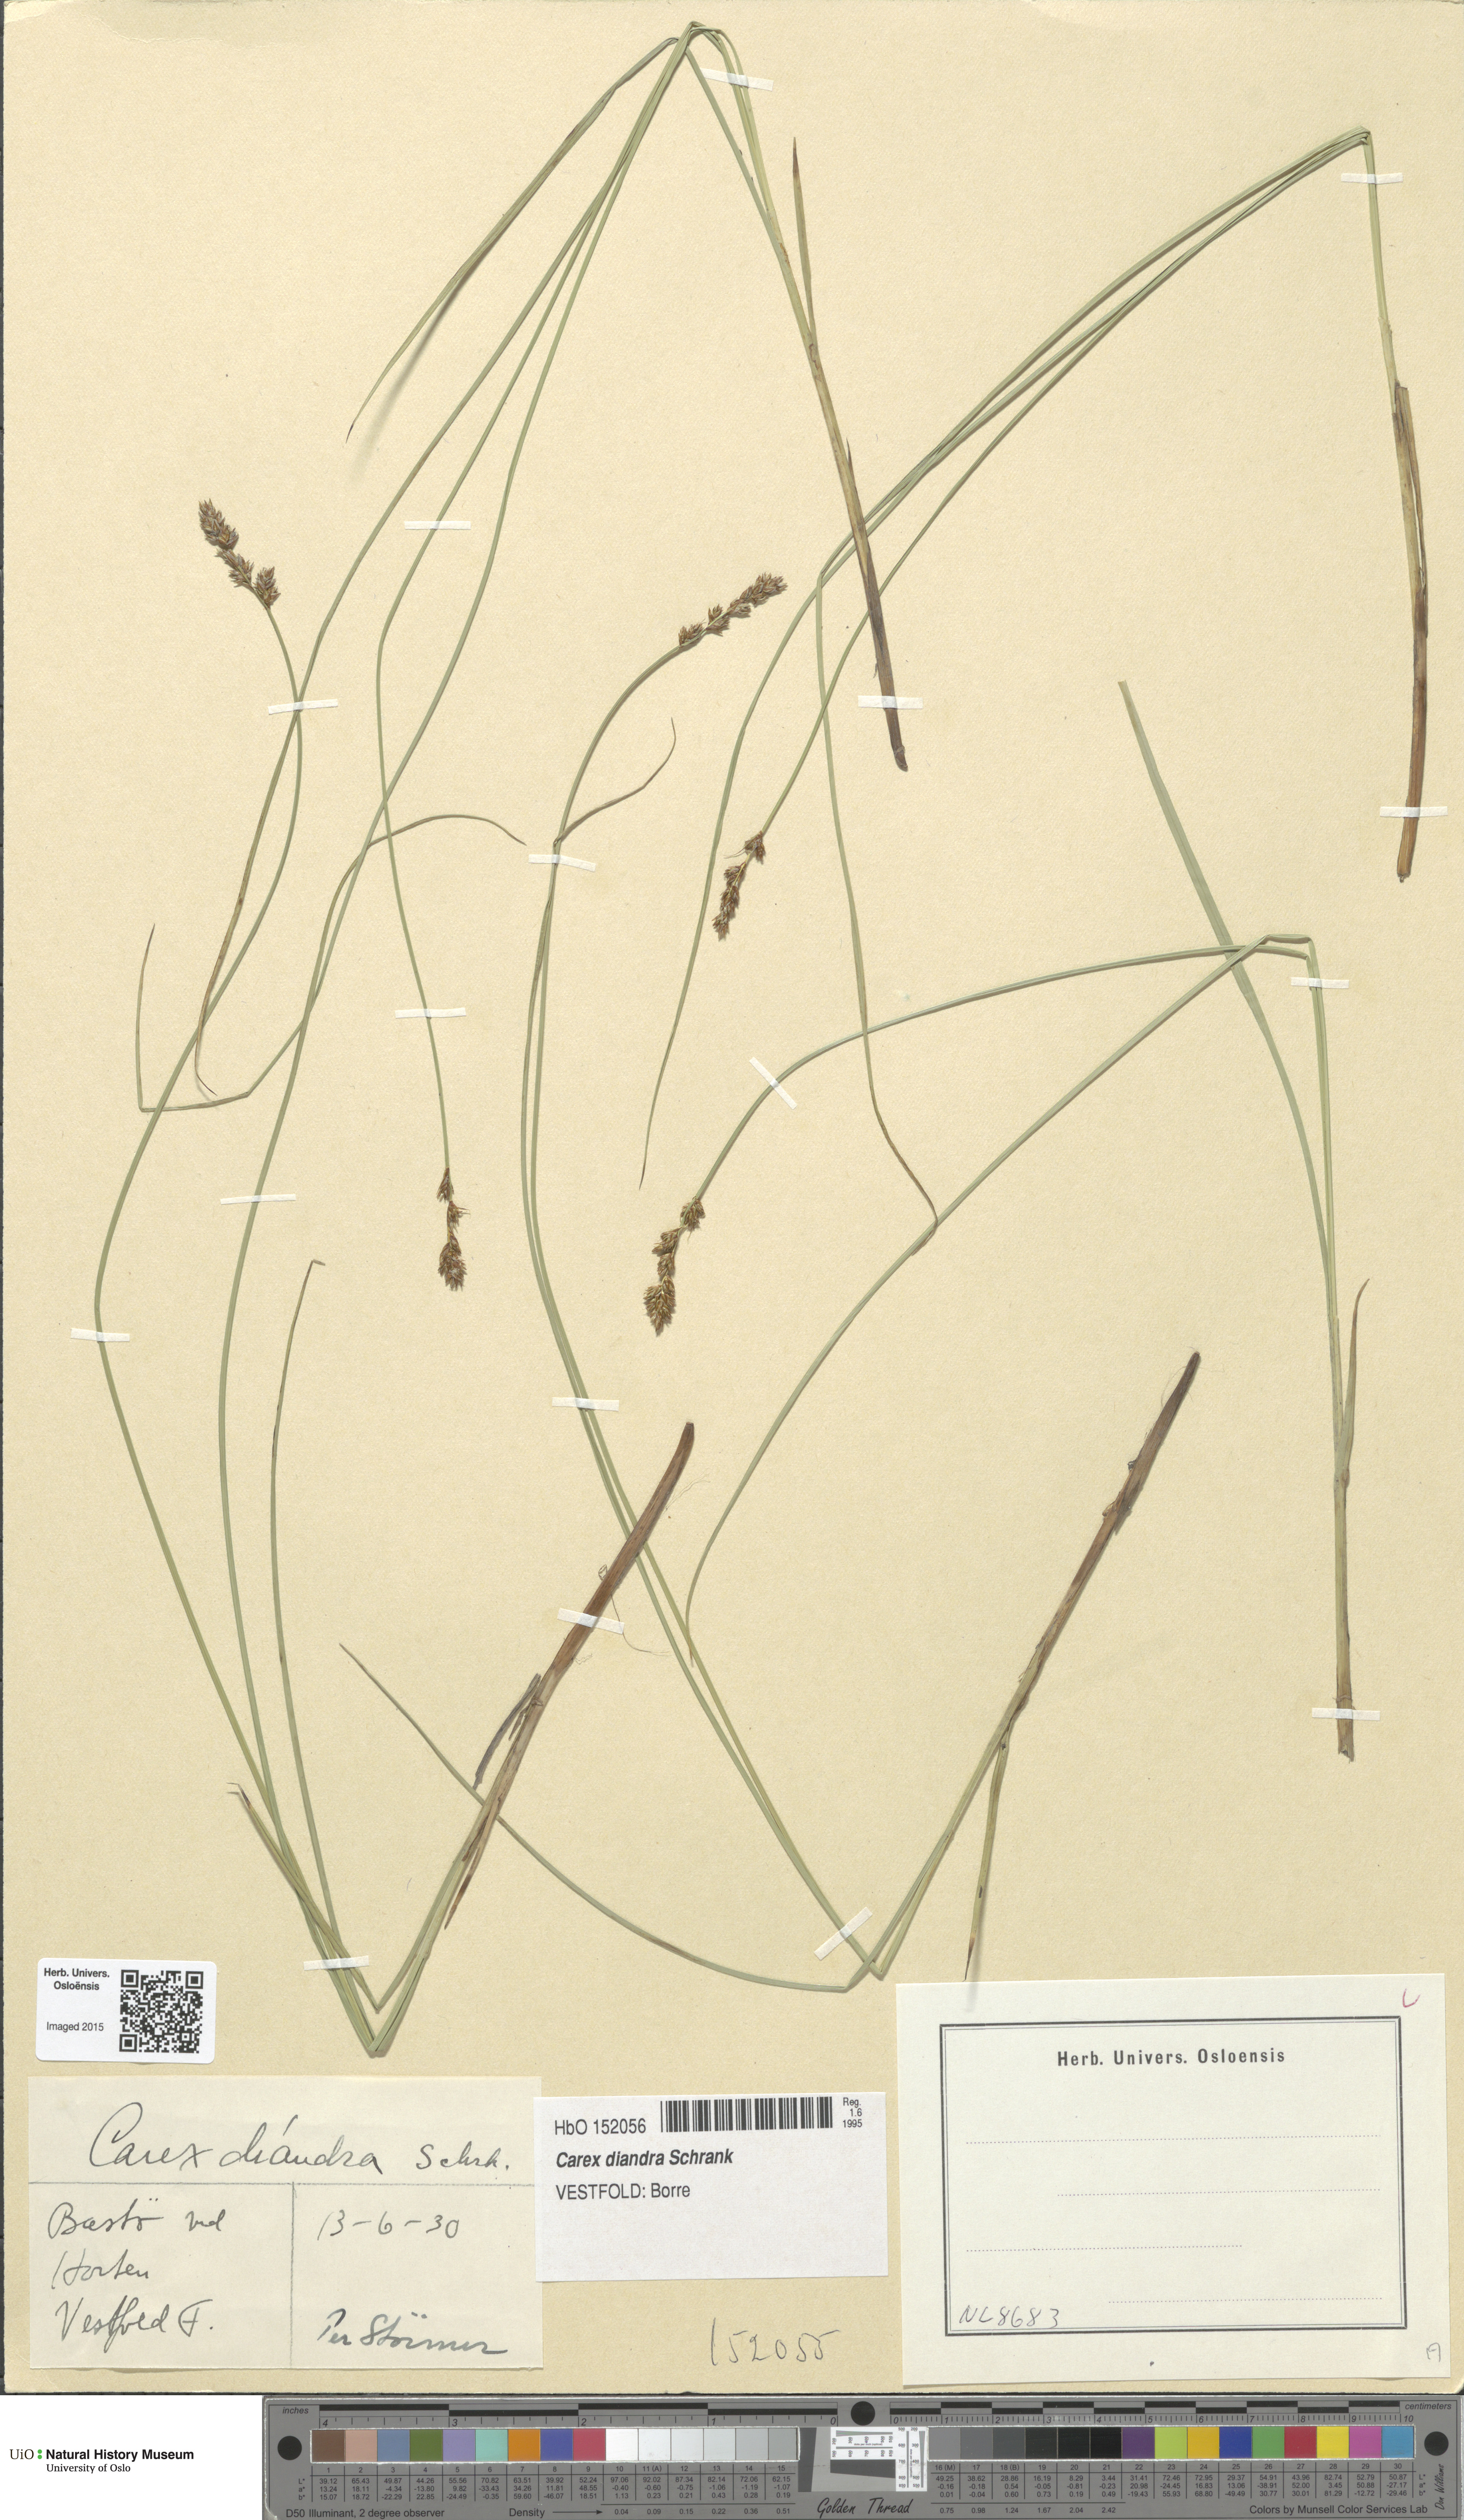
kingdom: Plantae
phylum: Tracheophyta
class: Liliopsida
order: Poales
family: Cyperaceae
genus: Carex
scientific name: Carex diandra
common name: Lesser tussock-sedge
